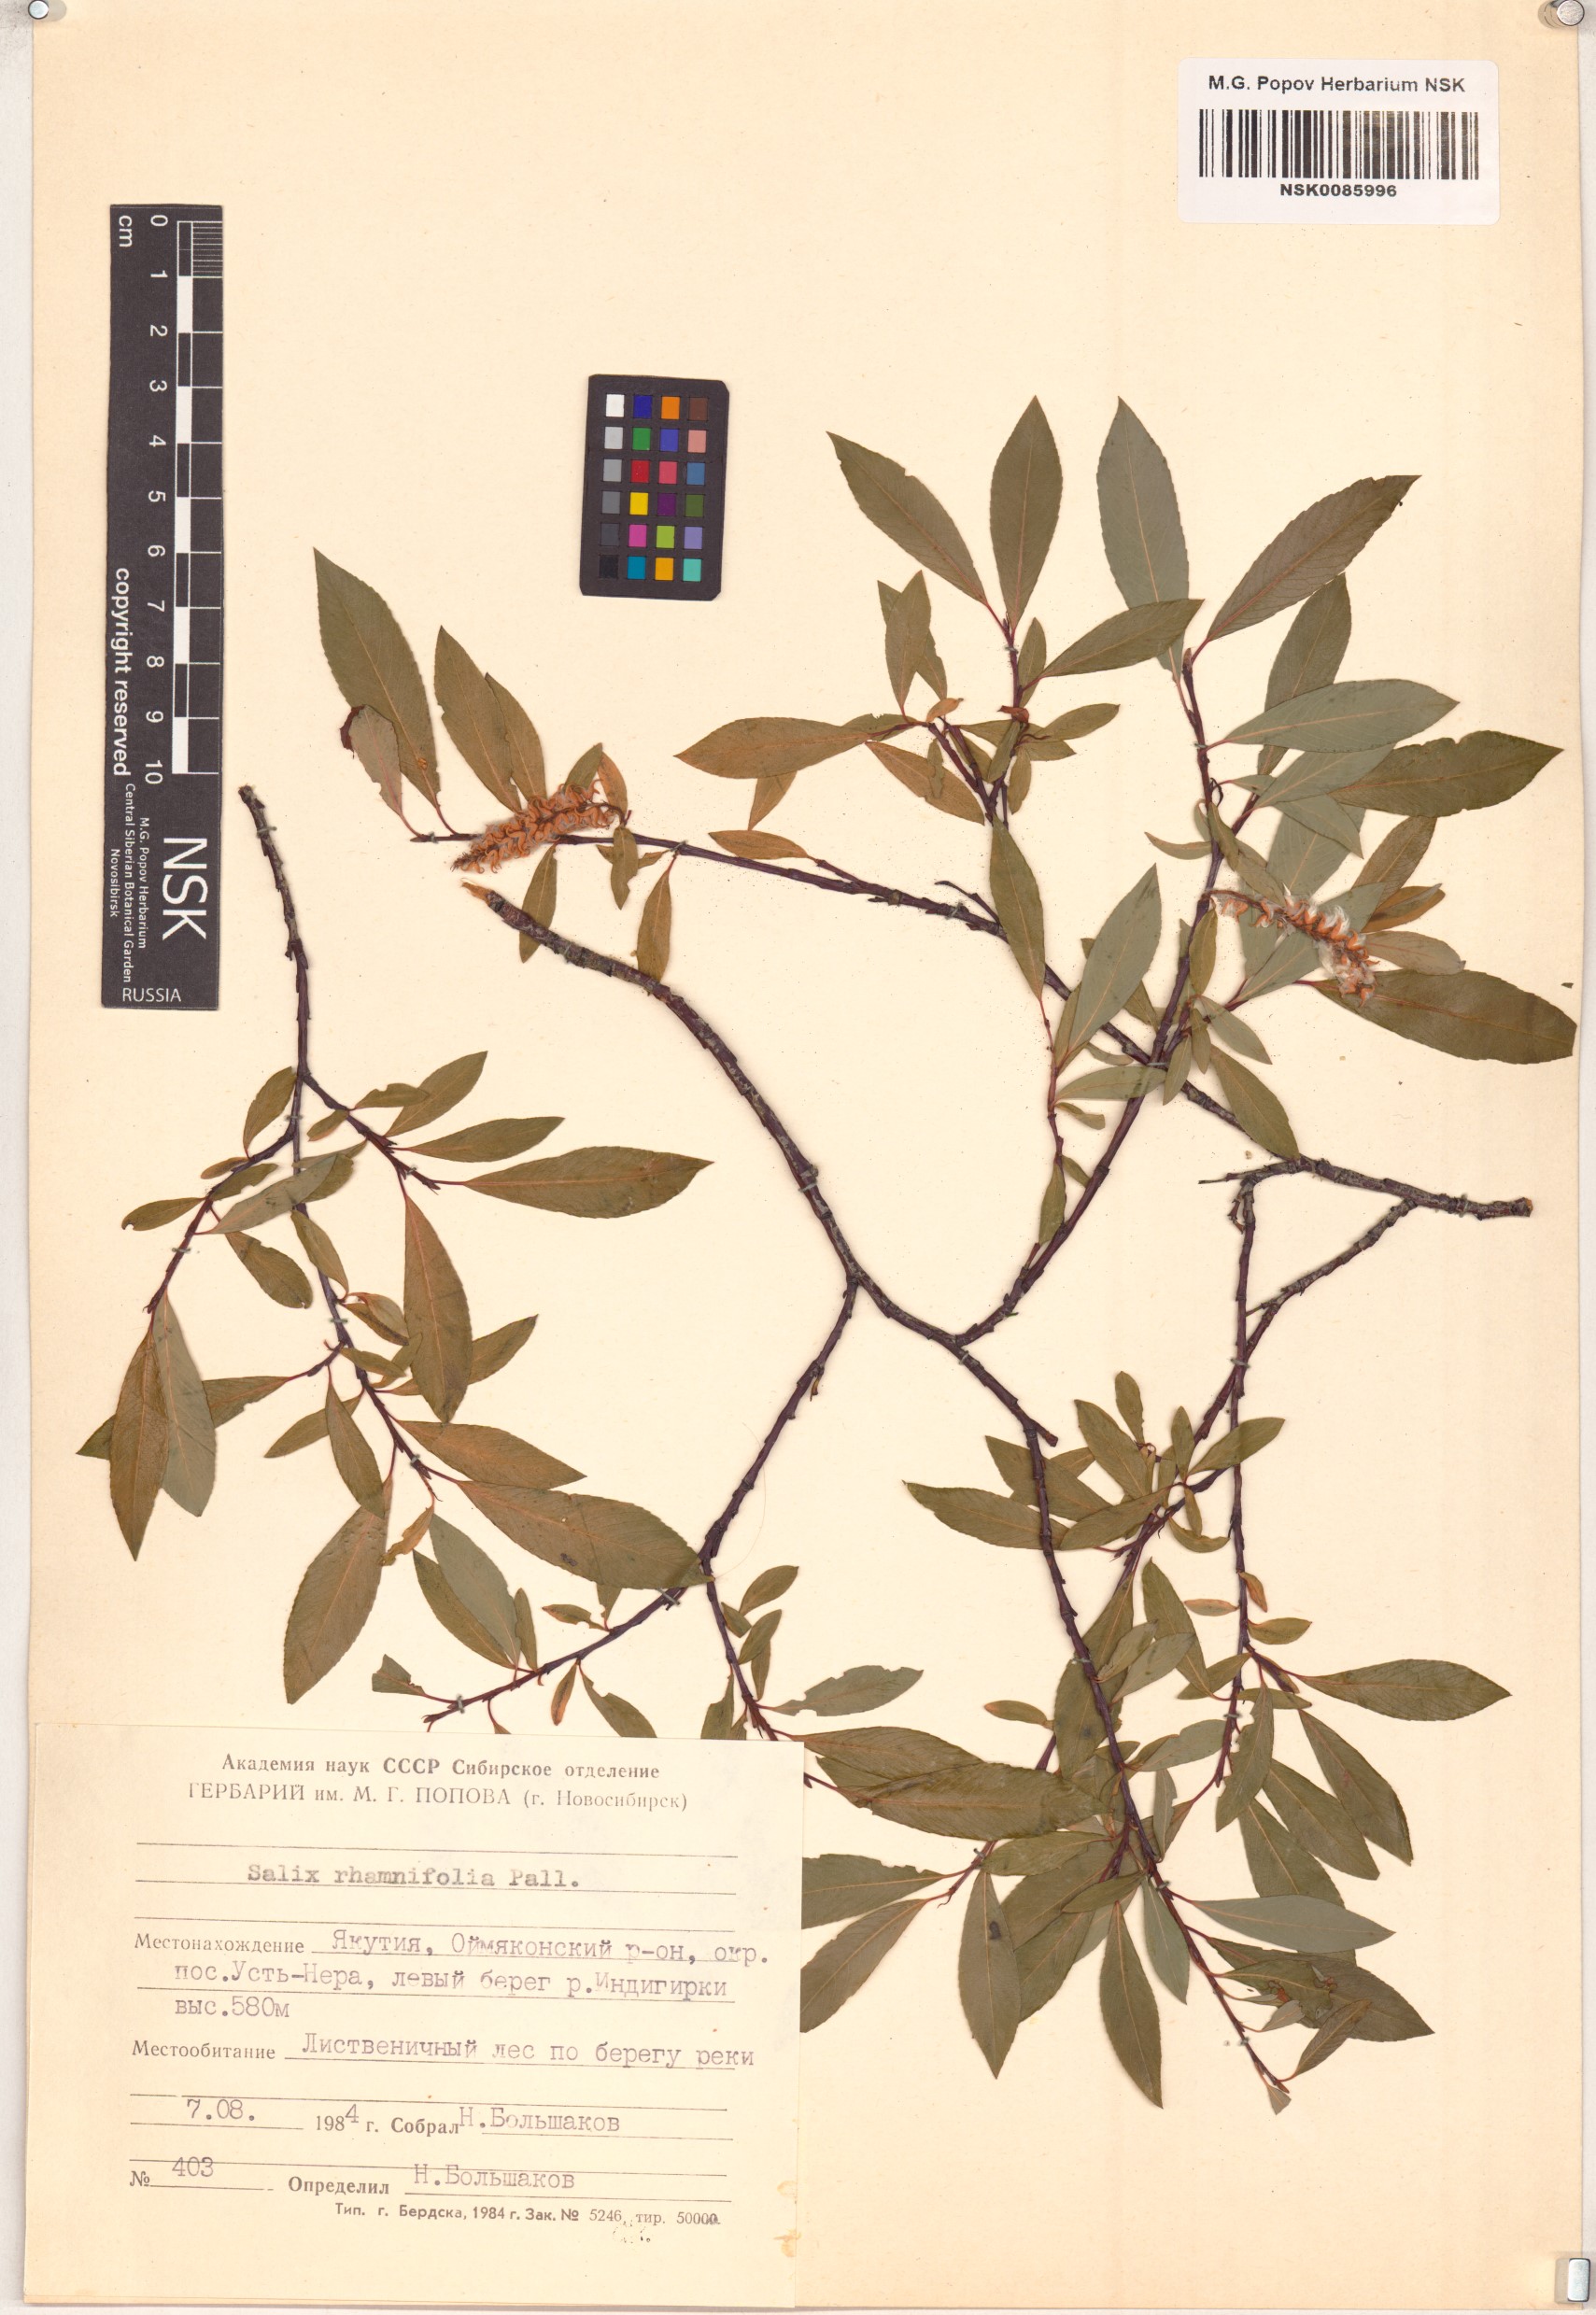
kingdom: Plantae
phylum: Tracheophyta
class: Magnoliopsida
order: Malpighiales
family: Salicaceae
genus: Salix
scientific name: Salix rhamnifolia
